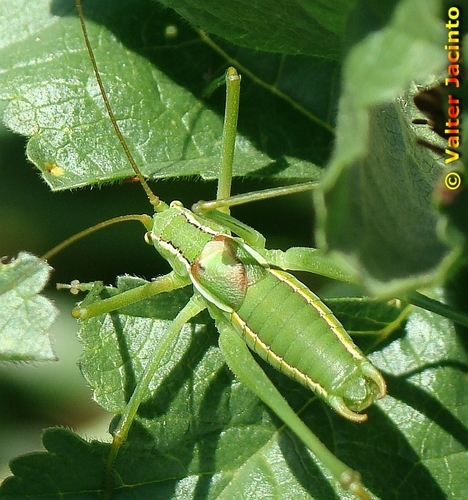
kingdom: Animalia
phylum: Arthropoda
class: Insecta
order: Orthoptera
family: Tettigoniidae
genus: Odontura
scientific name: Odontura glabricauda
